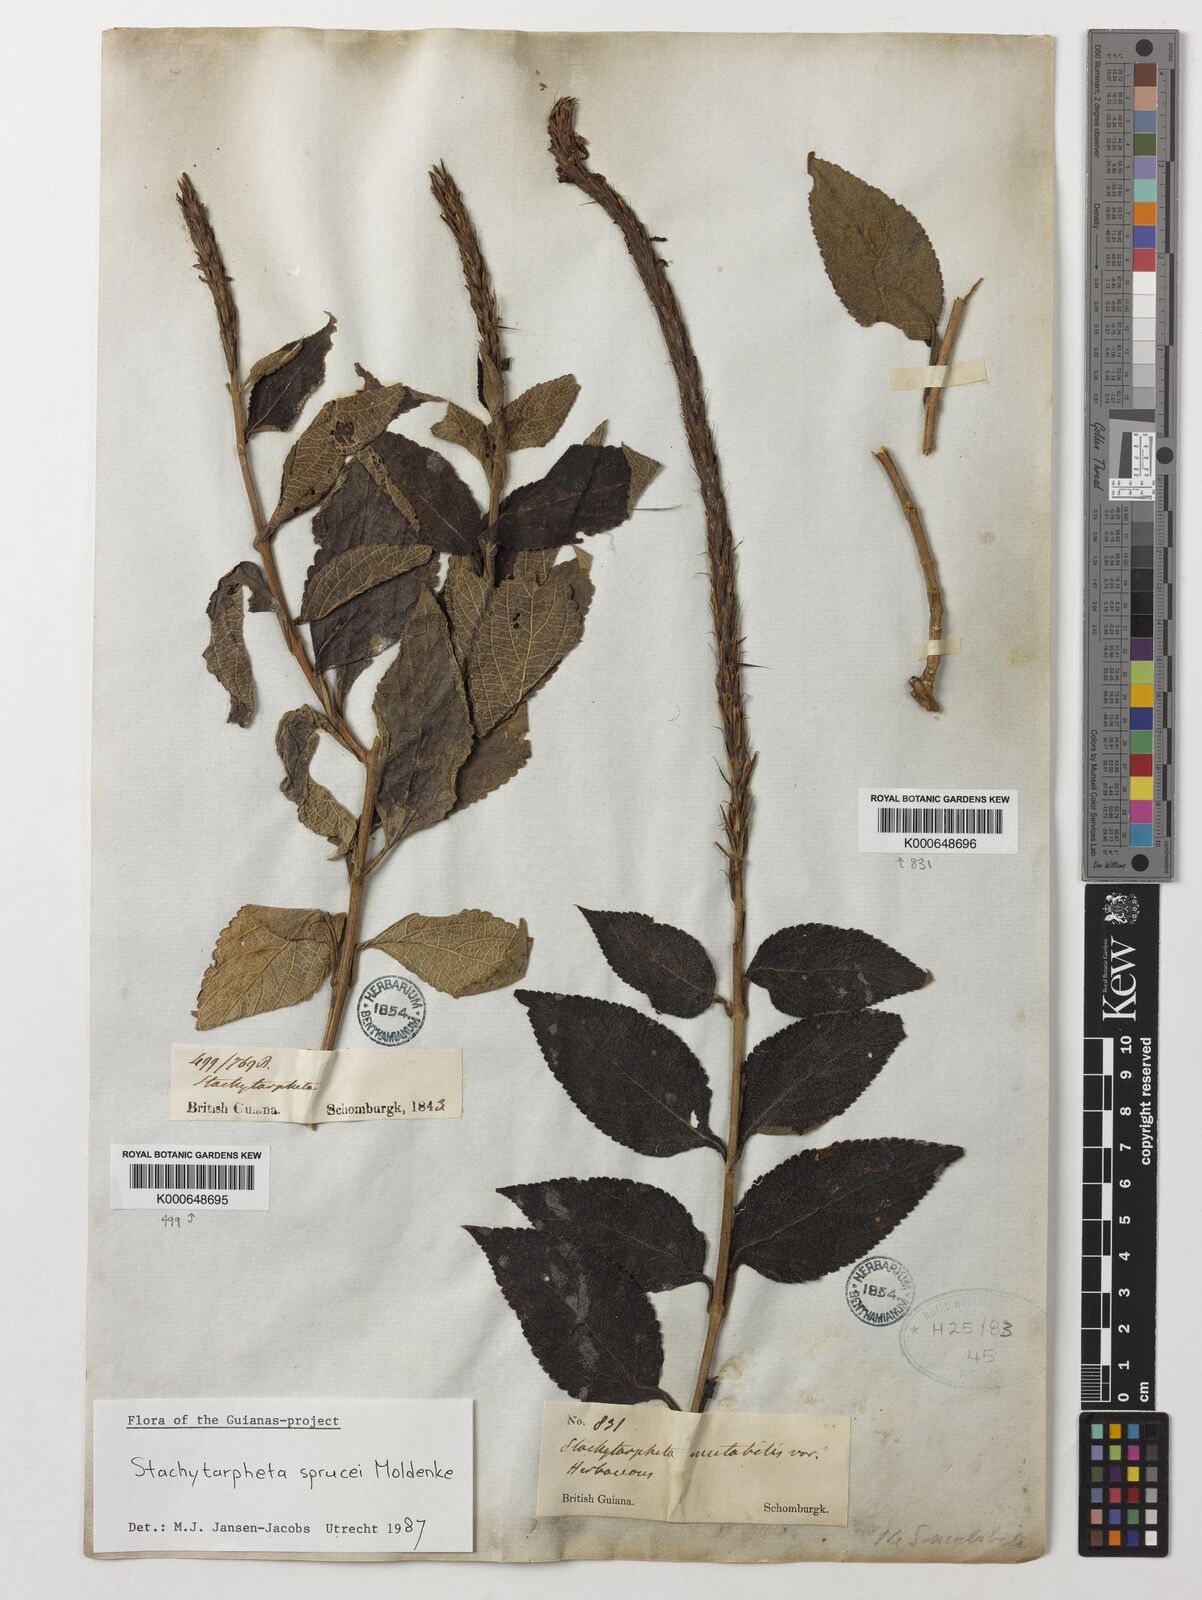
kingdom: Plantae
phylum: Tracheophyta
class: Magnoliopsida
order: Lamiales
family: Verbenaceae
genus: Stachytarpheta
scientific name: Stachytarpheta sprucei
